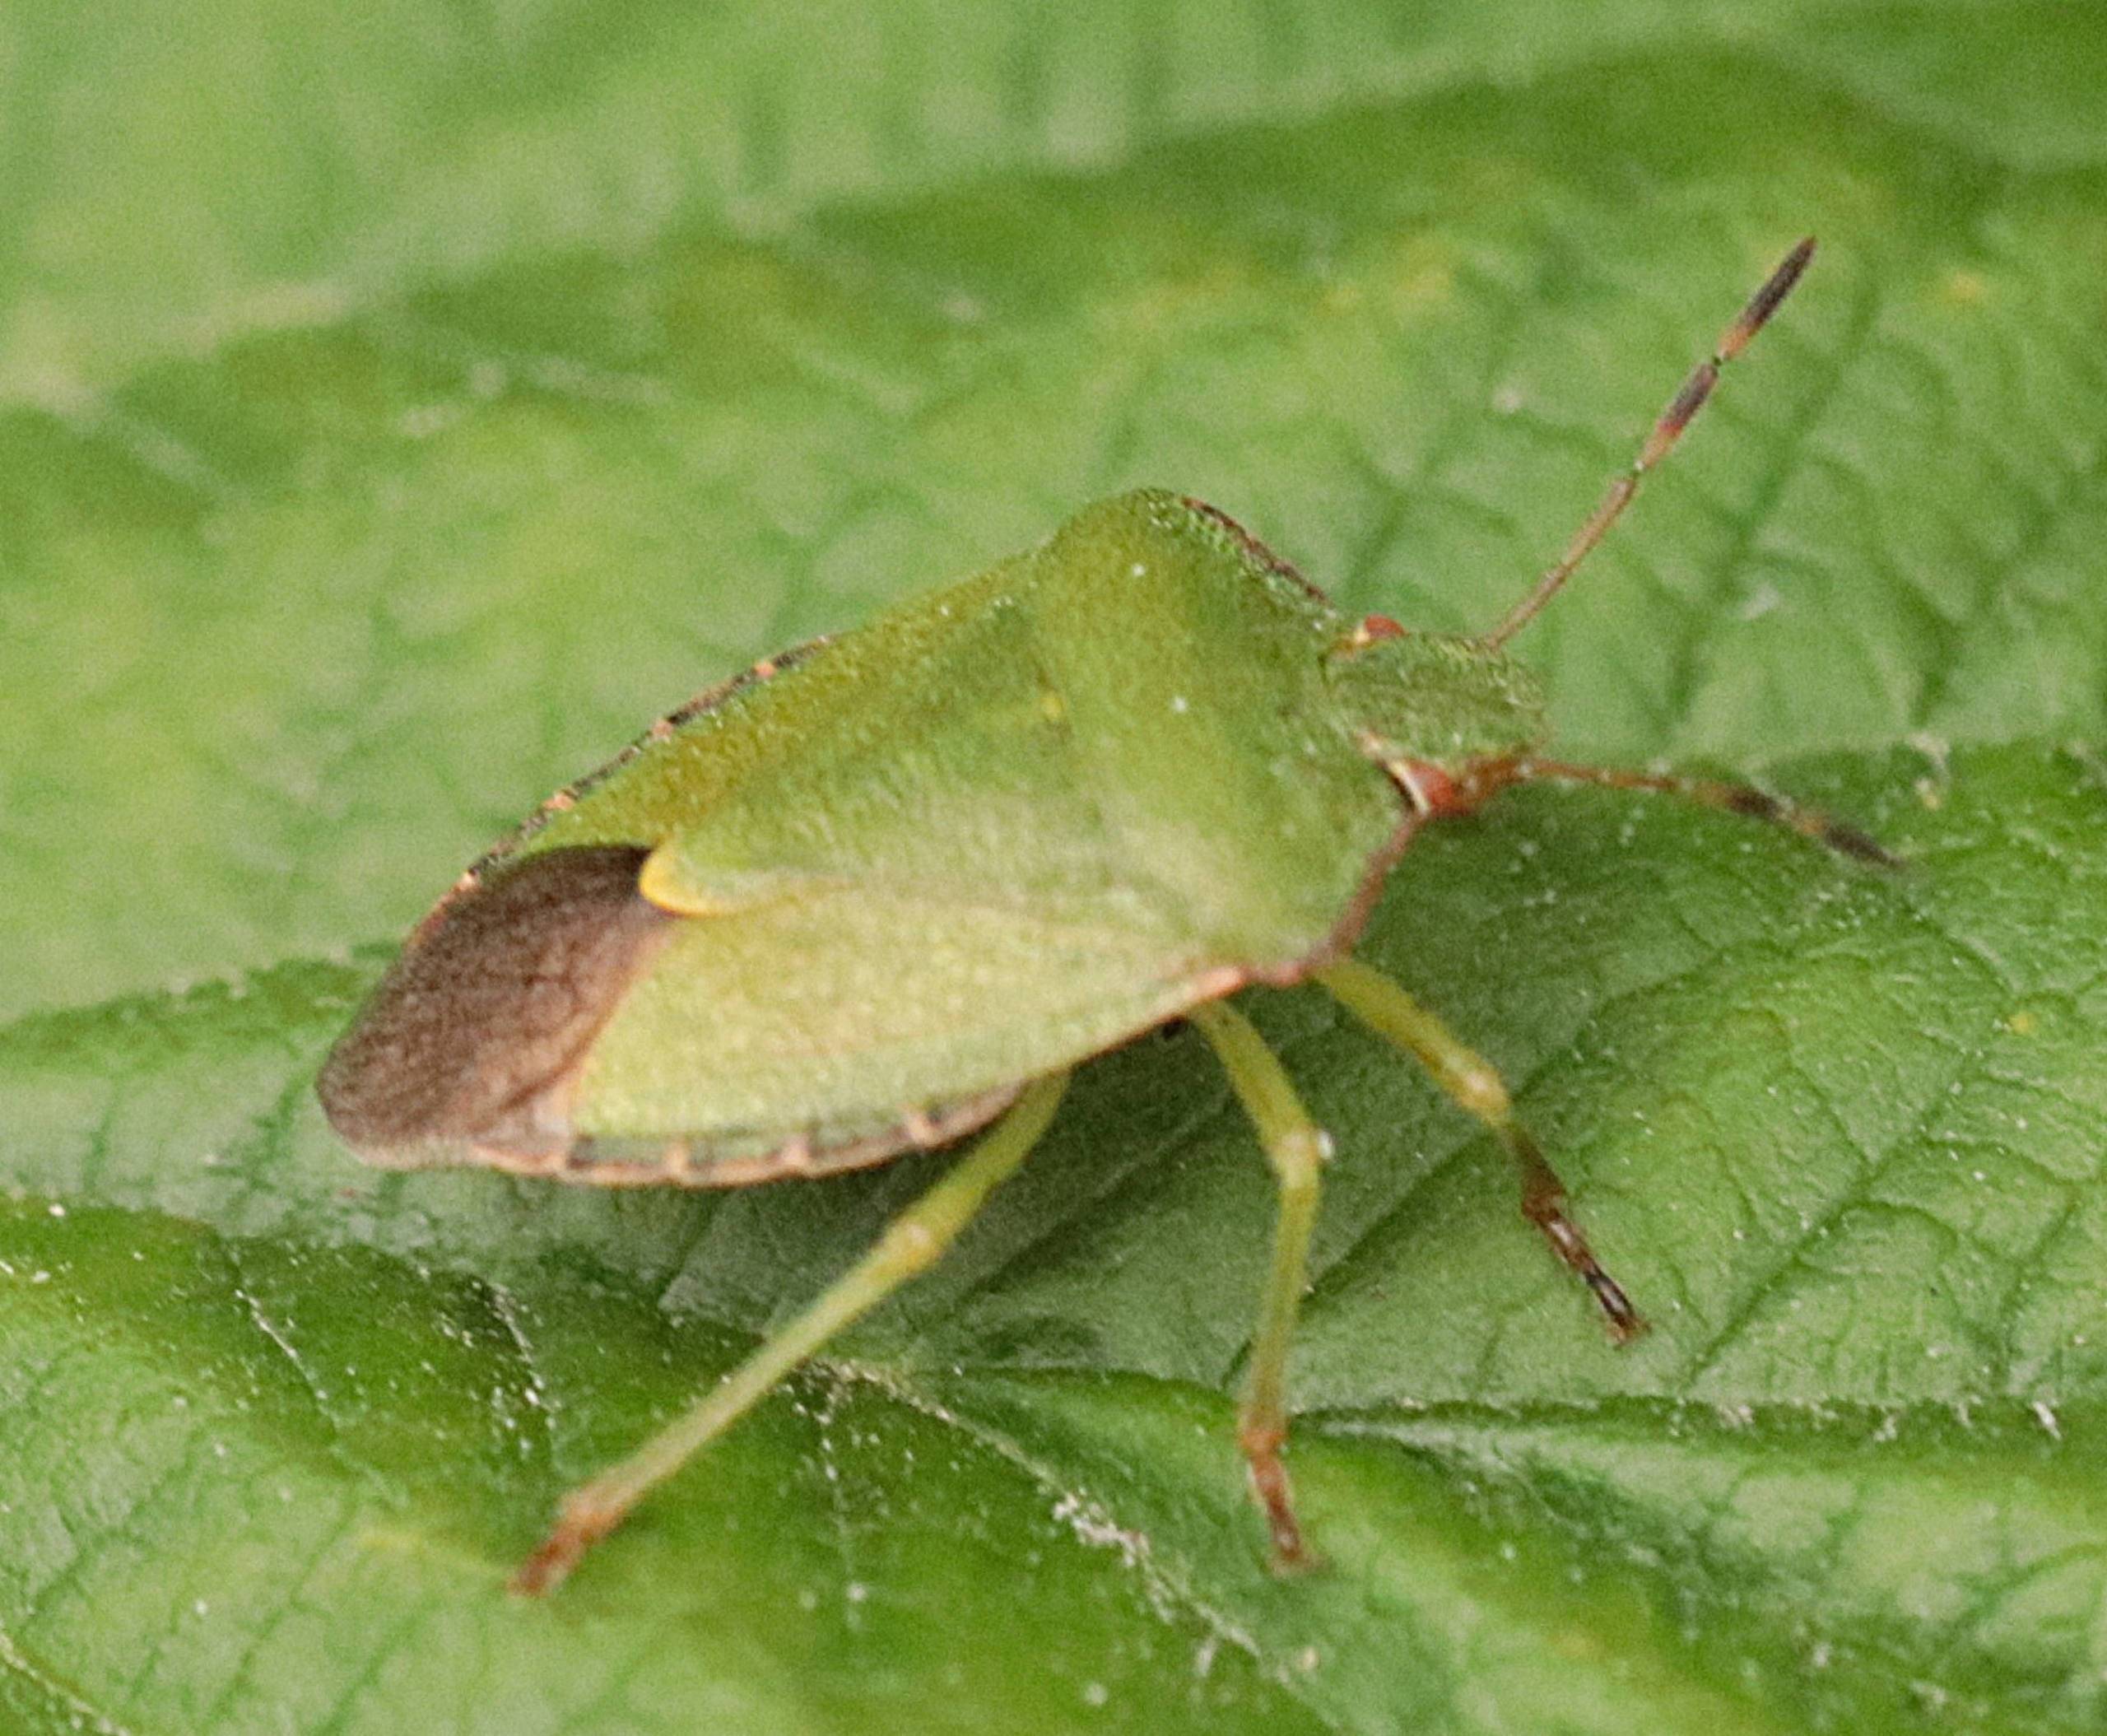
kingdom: Animalia
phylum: Arthropoda
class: Insecta
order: Hemiptera
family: Pentatomidae
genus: Palomena
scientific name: Palomena prasina
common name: Grøn bredtæge
